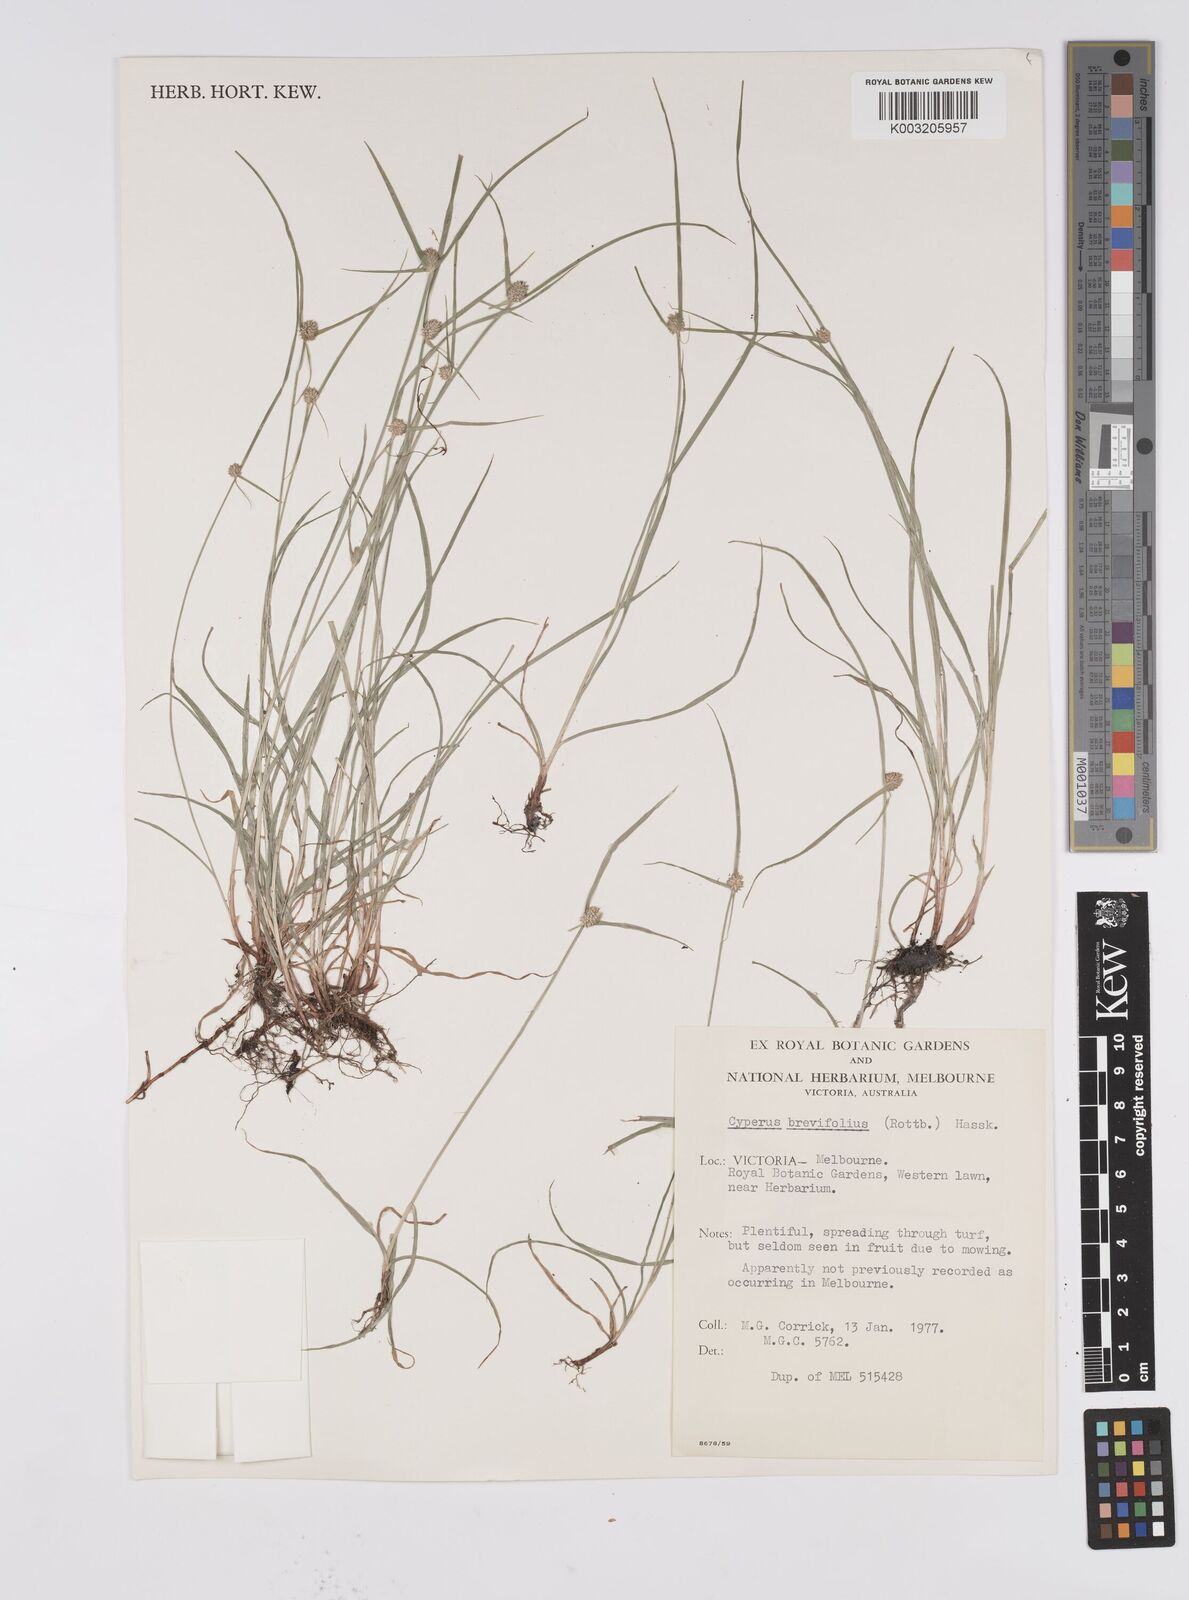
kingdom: Plantae
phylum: Tracheophyta
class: Liliopsida
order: Poales
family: Cyperaceae
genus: Cyperus
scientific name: Cyperus brevifolius
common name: Globe kyllinga
